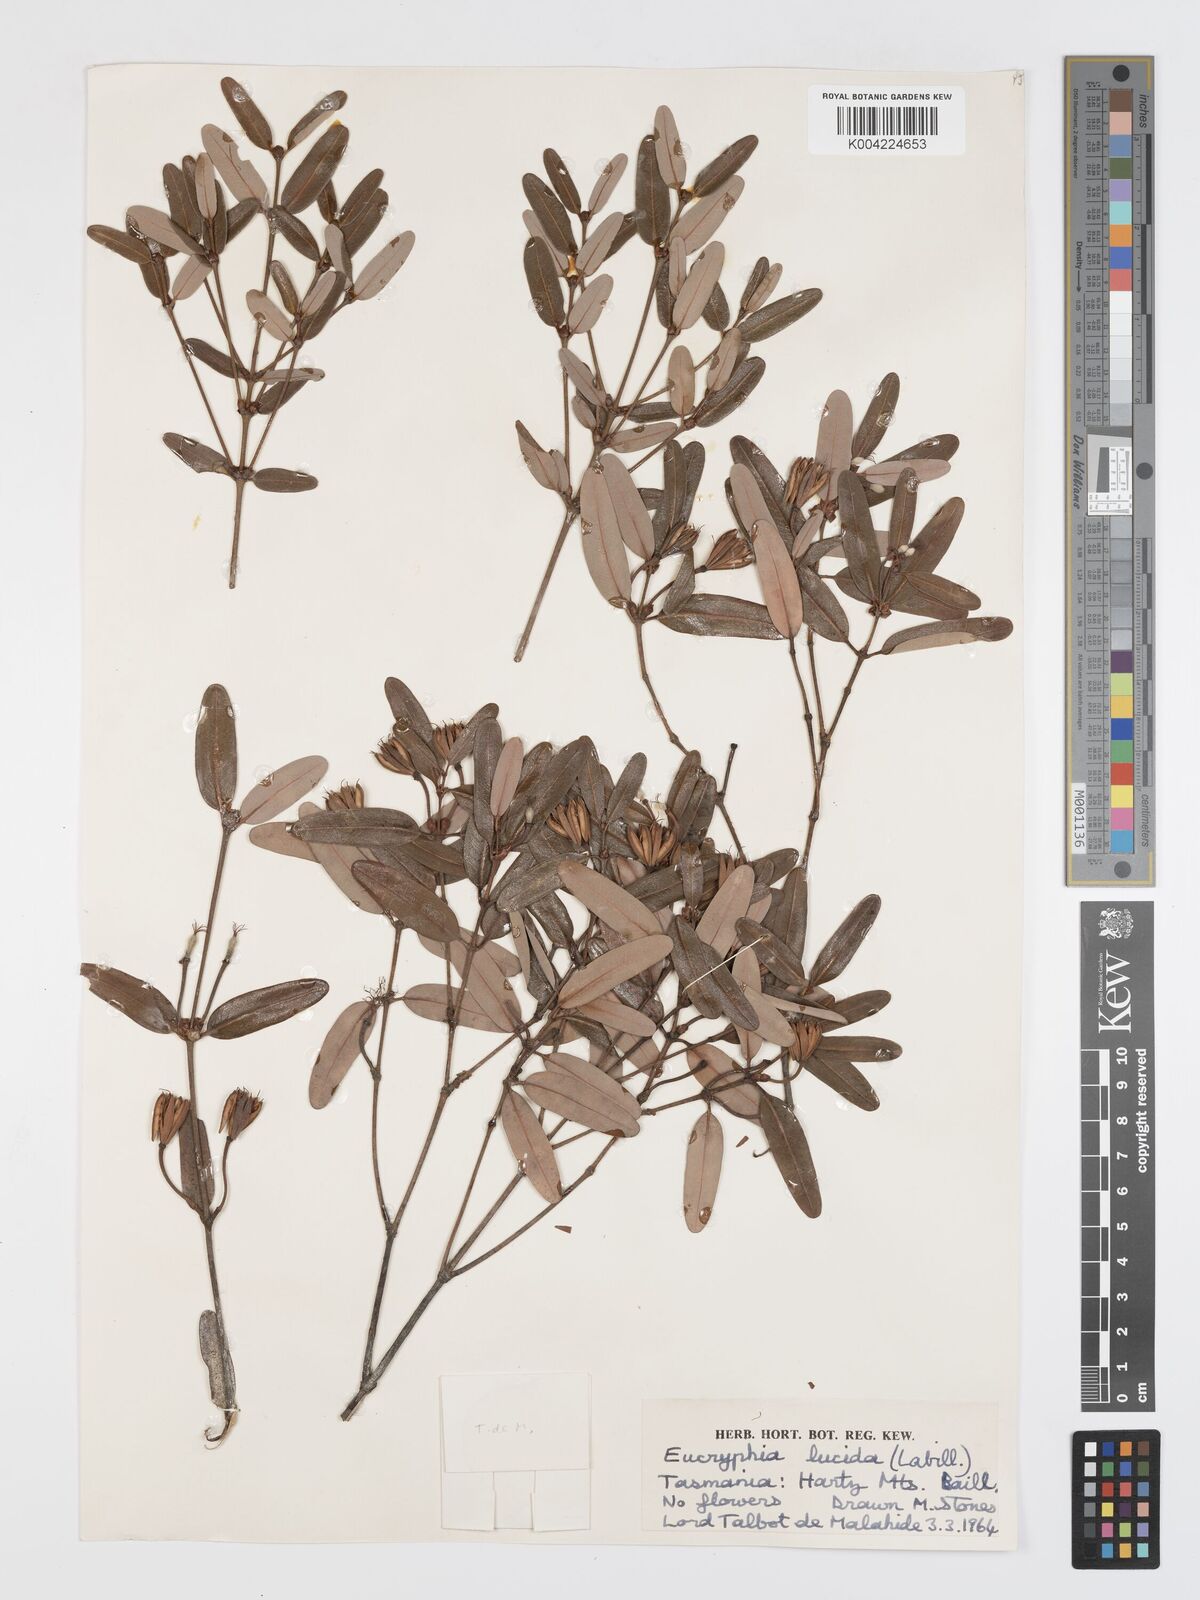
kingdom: Plantae
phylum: Tracheophyta
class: Magnoliopsida
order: Oxalidales
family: Cunoniaceae
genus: Eucryphia
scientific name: Eucryphia lucida
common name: Leatherwood
